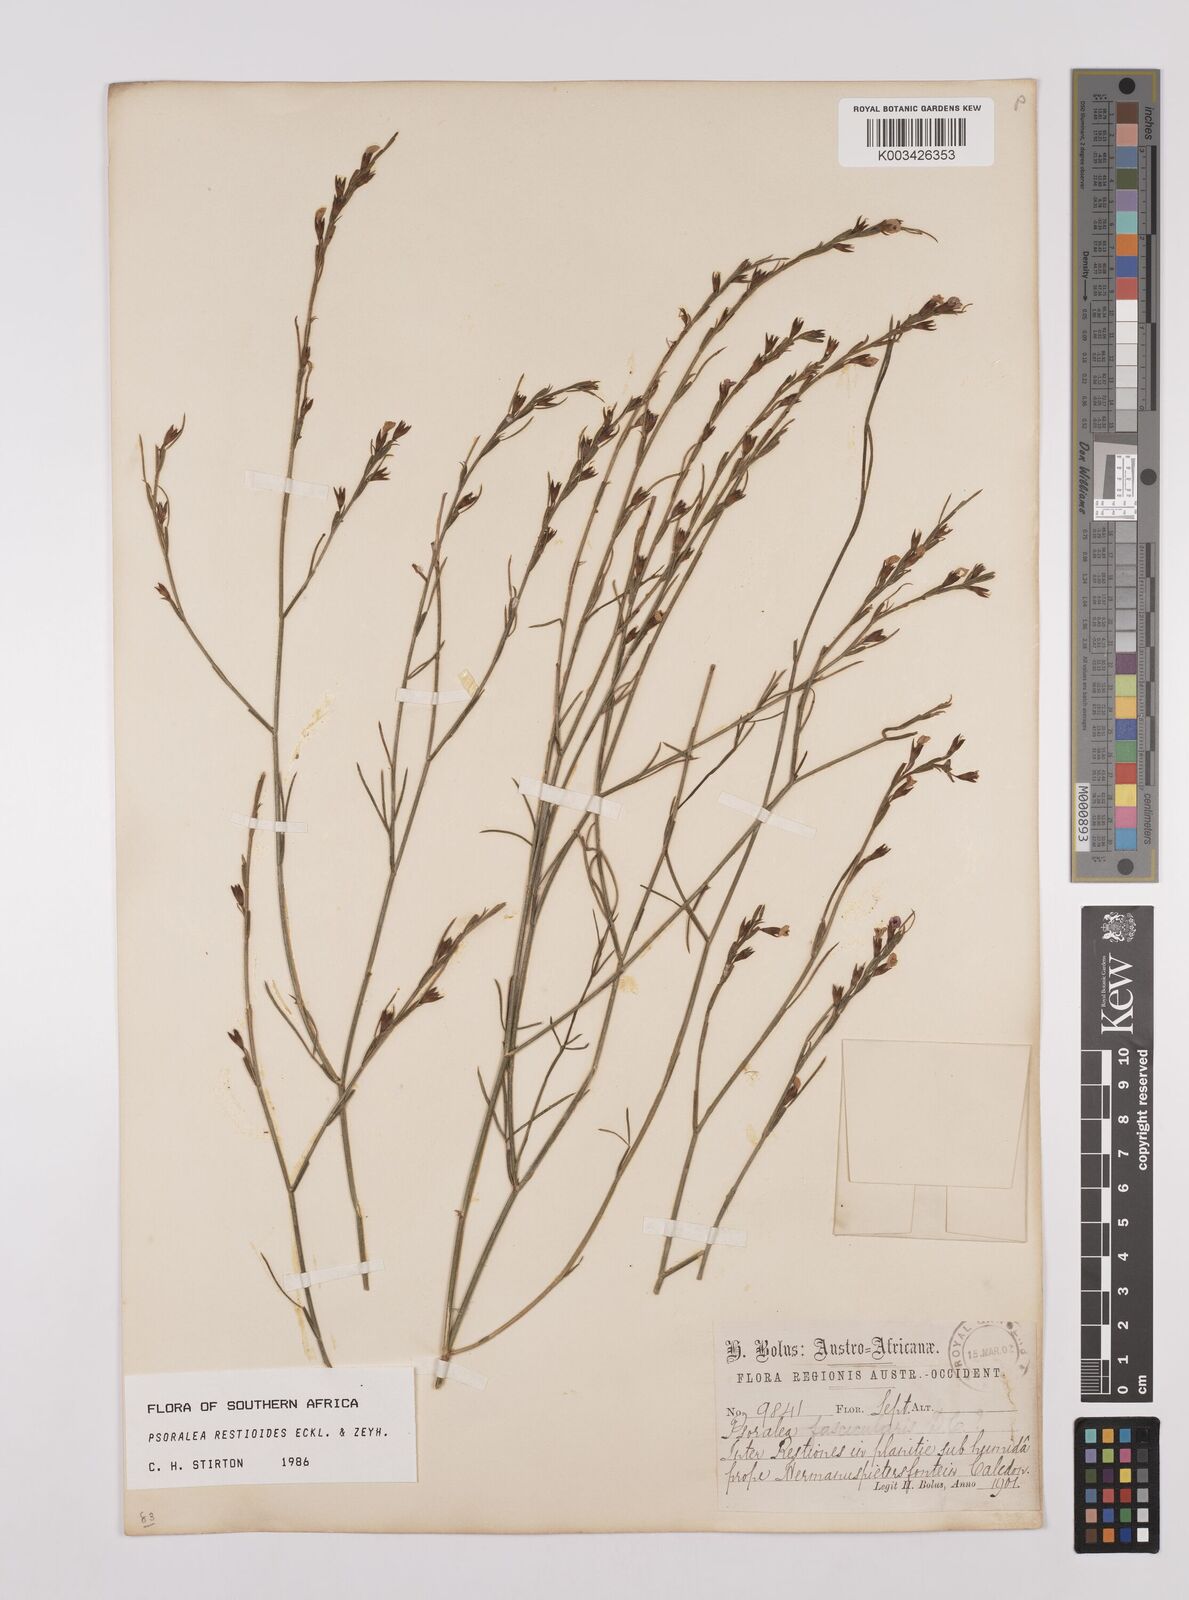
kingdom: Plantae
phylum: Tracheophyta
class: Magnoliopsida
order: Fabales
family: Fabaceae
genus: Psoralea
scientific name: Psoralea restioides
